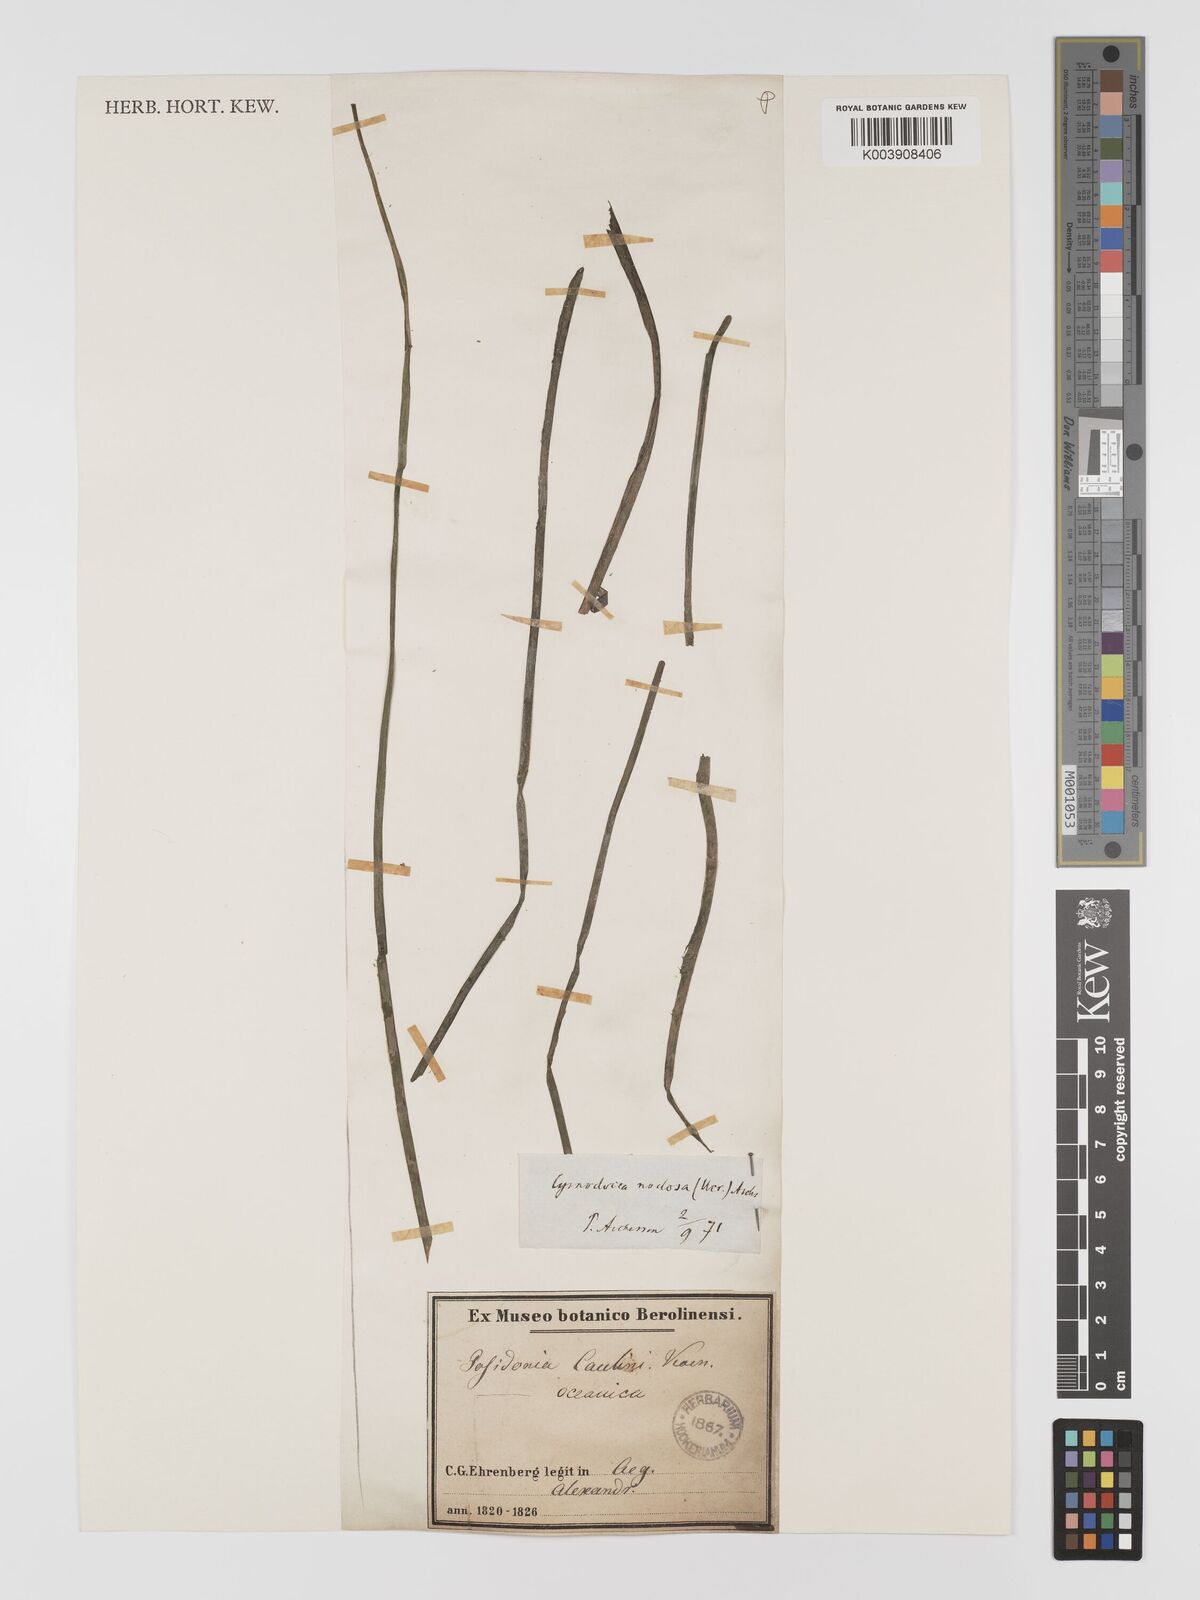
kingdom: Plantae
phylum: Tracheophyta
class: Liliopsida
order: Alismatales
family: Posidoniaceae
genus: Posidonia
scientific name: Posidonia oceanica
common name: Mediterranean tapeweed
